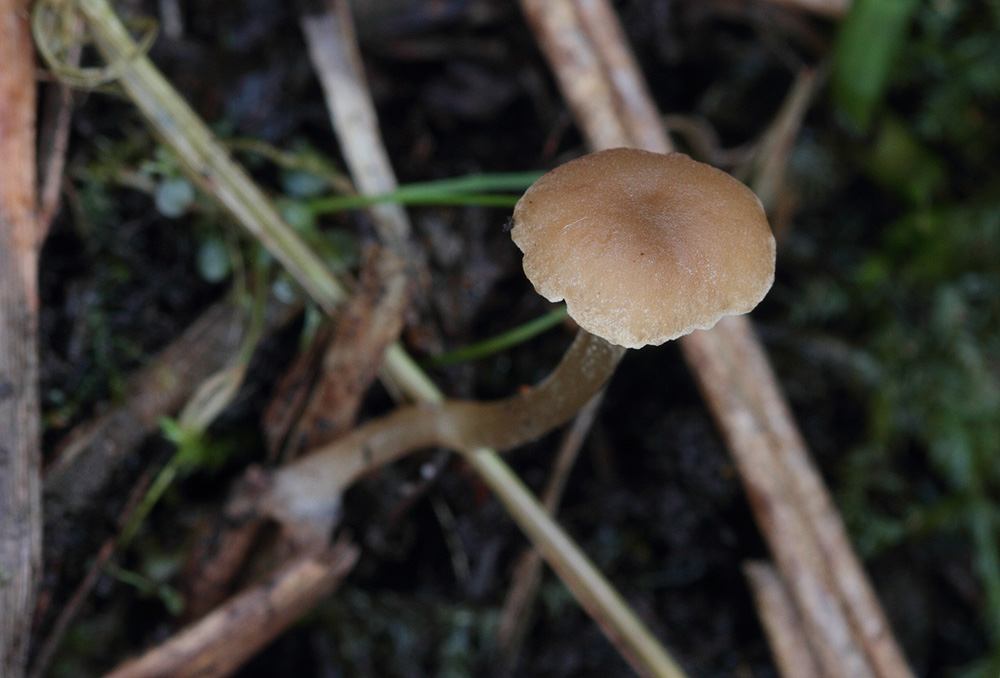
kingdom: Fungi
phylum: Basidiomycota
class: Agaricomycetes
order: Agaricales
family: Crepidotaceae
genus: Simocybe
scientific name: Simocybe centunculus
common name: mose-skyggehat
